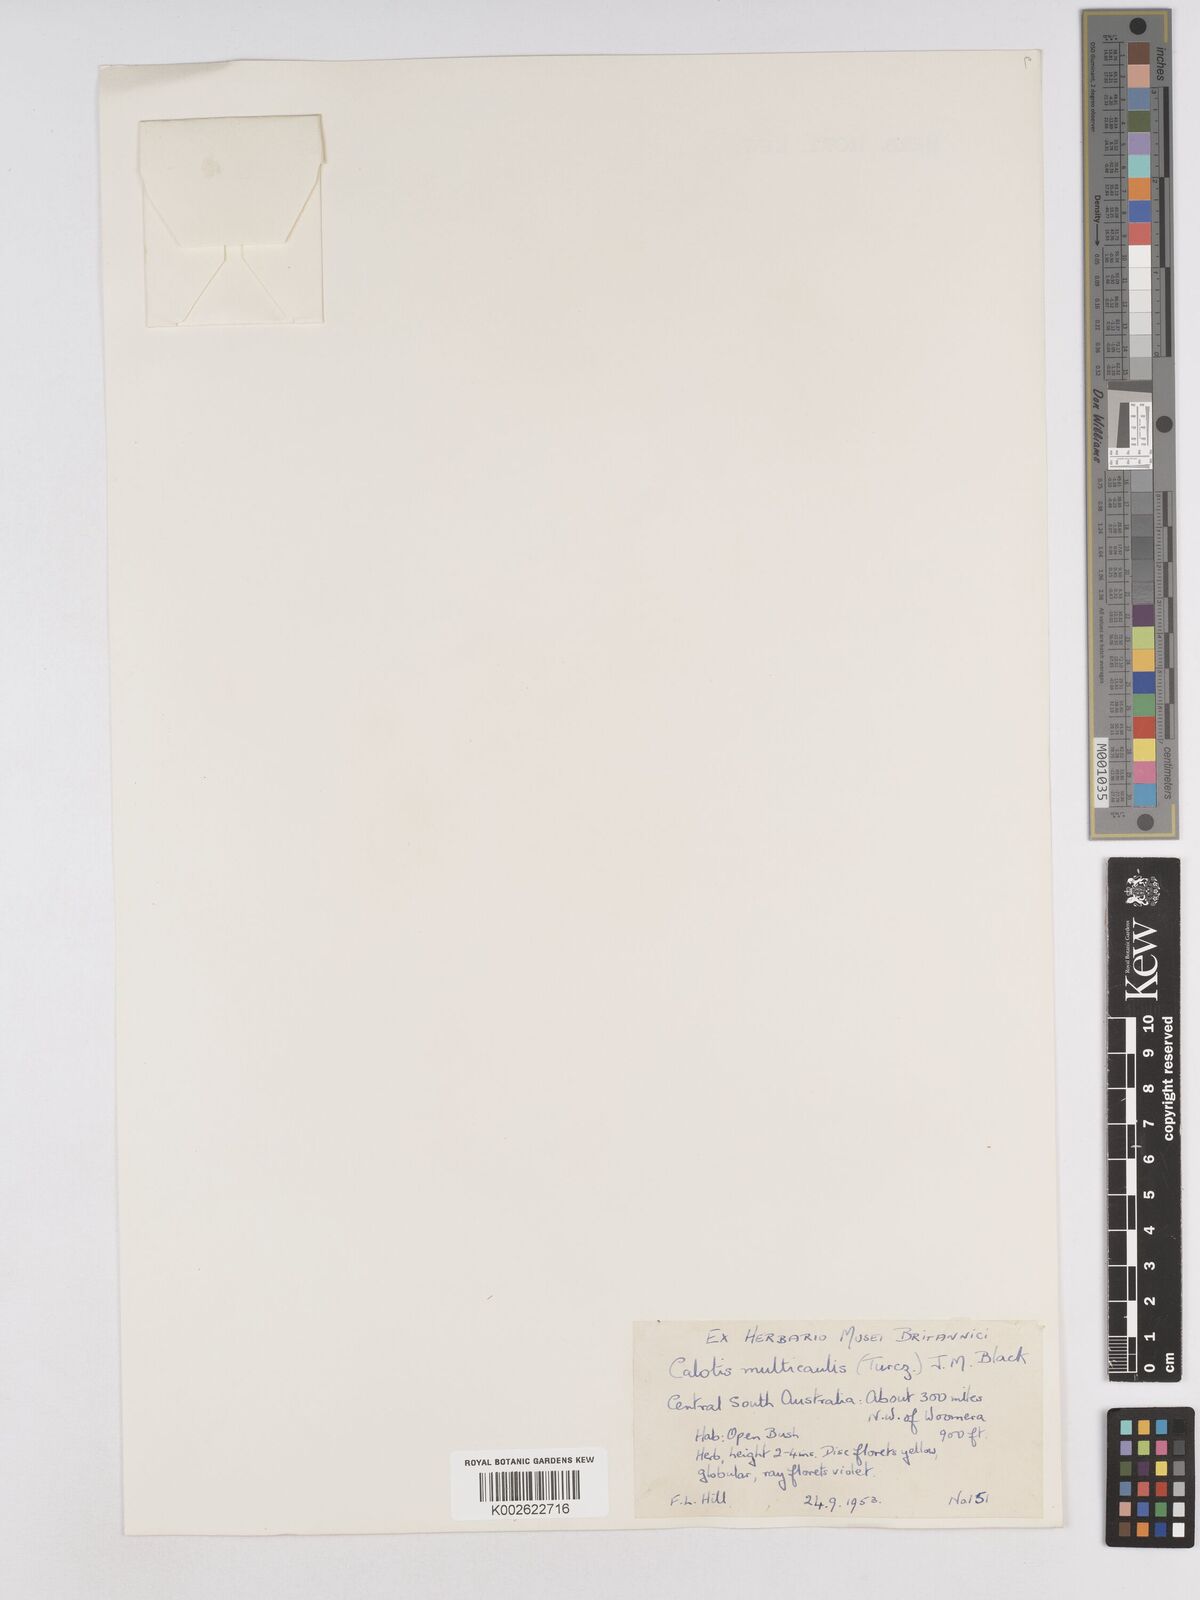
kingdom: Plantae
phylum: Tracheophyta
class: Magnoliopsida
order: Asterales
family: Asteraceae
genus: Calotis
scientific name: Calotis multicaulis
